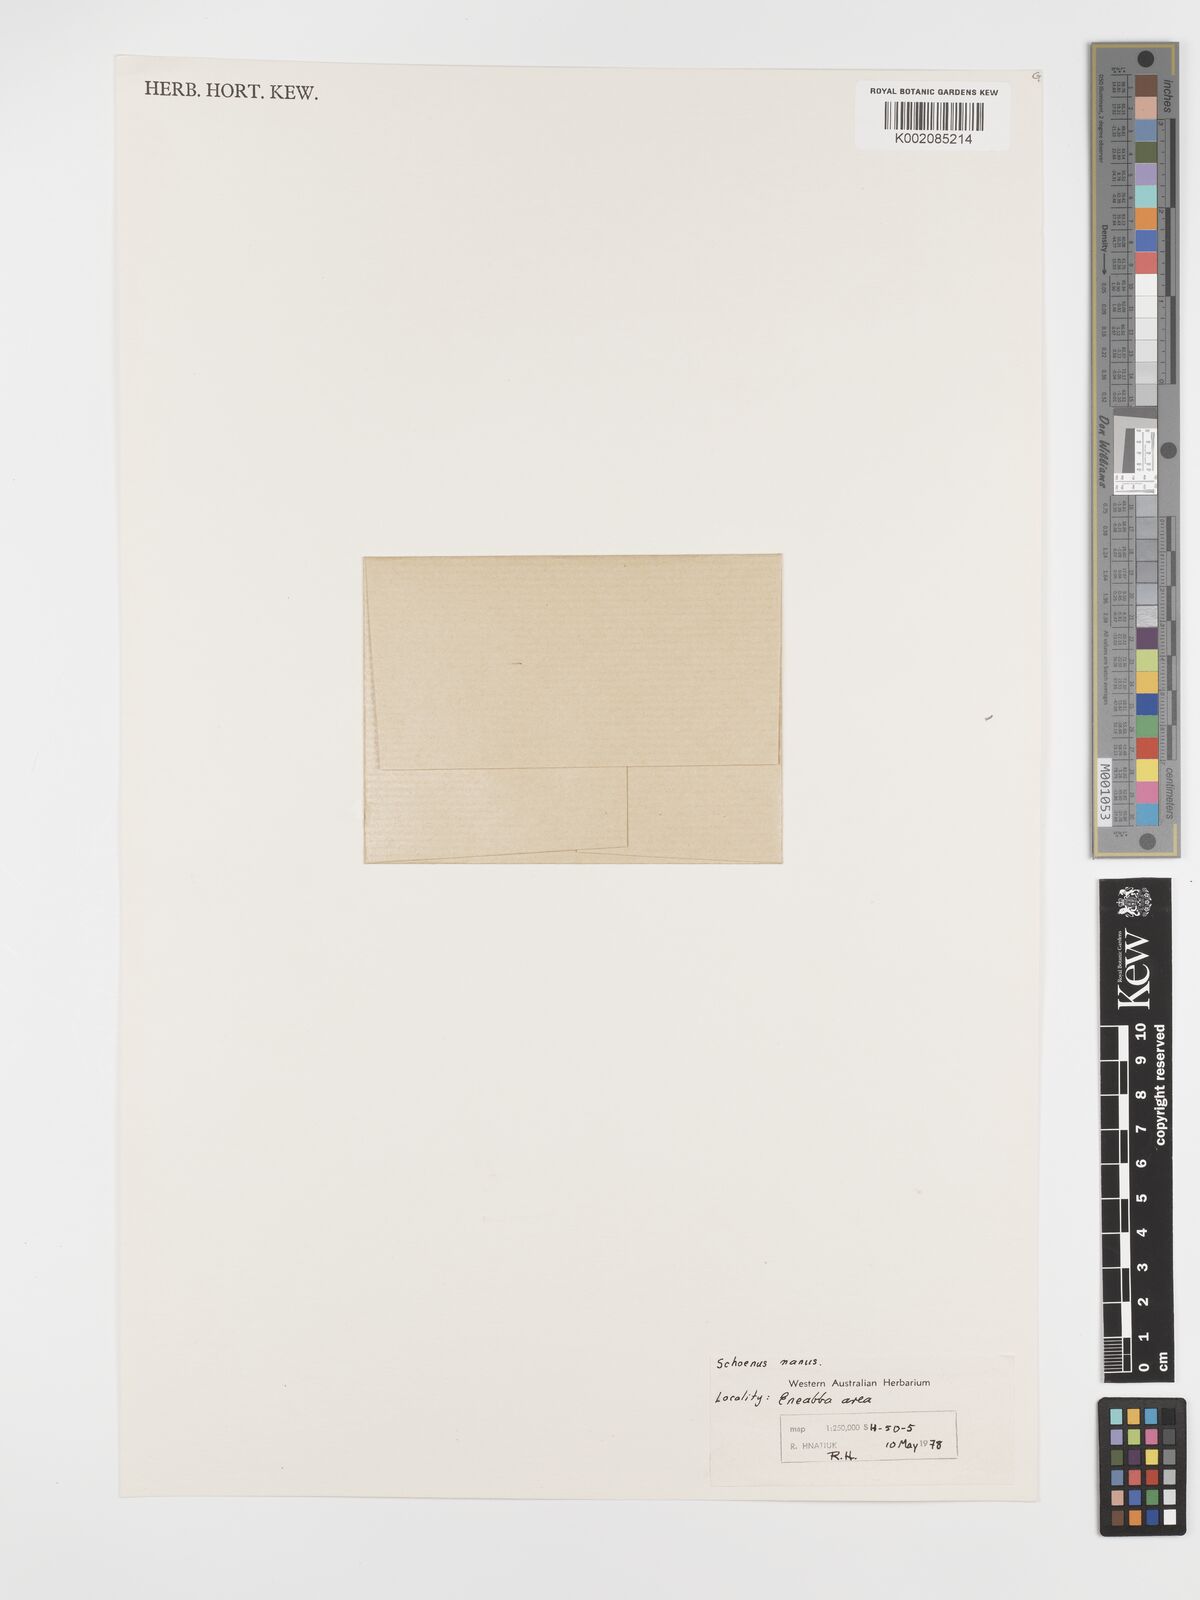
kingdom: Plantae
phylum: Tracheophyta
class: Liliopsida
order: Poales
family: Cyperaceae
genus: Schoenus
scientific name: Schoenus nanus
